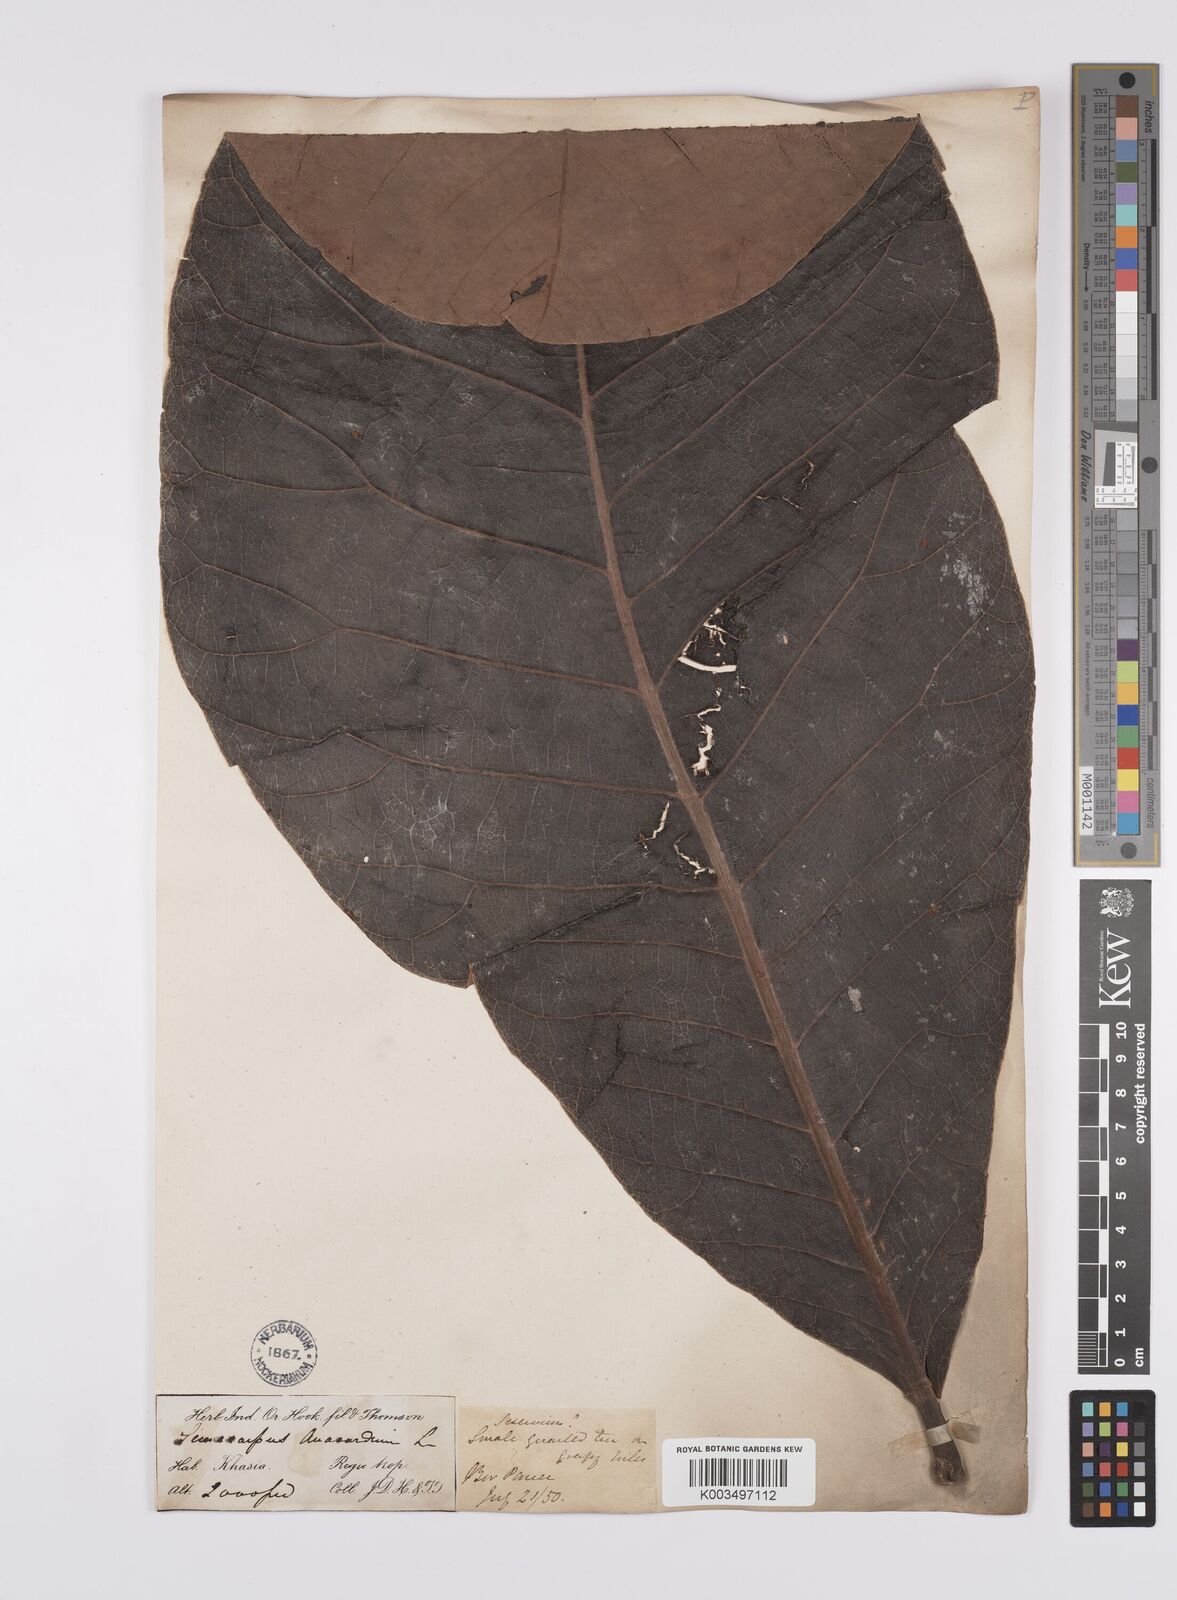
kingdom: Plantae
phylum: Tracheophyta
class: Magnoliopsida
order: Sapindales
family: Anacardiaceae
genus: Semecarpus
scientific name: Semecarpus anacardium
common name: Marking nut-tree
